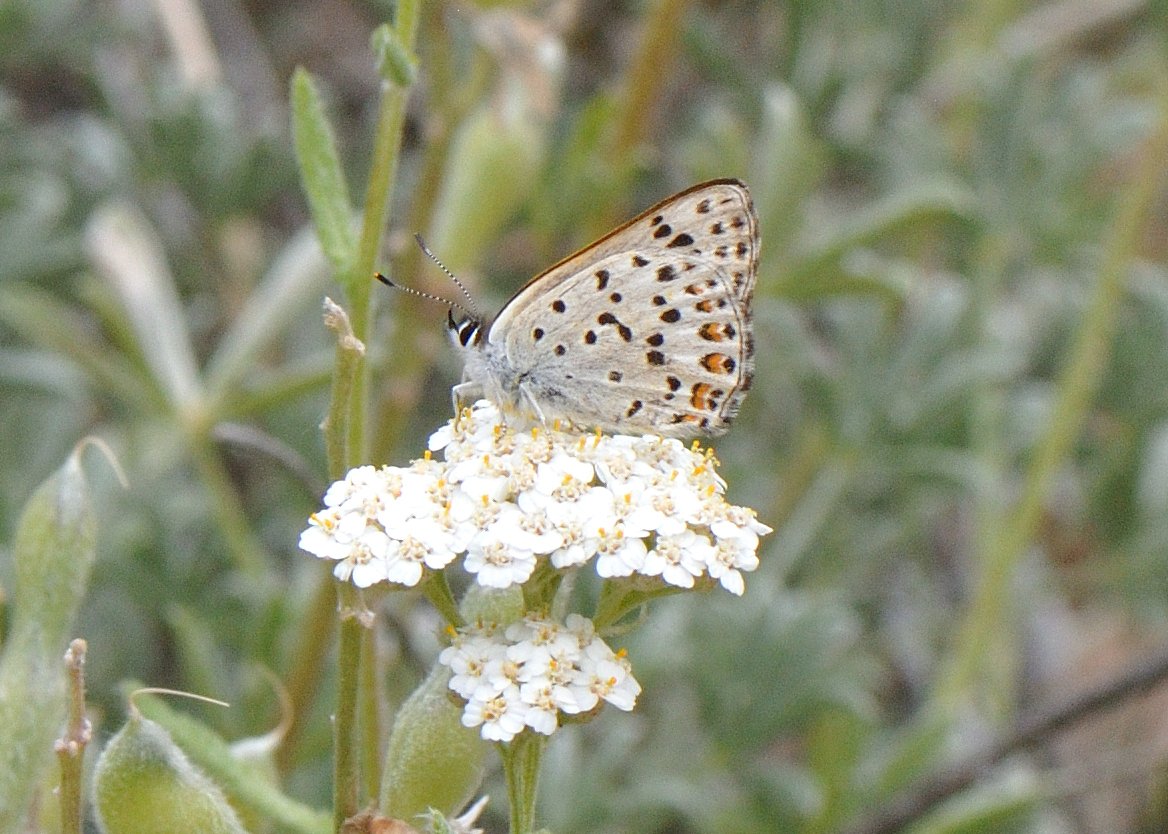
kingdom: Animalia
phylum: Arthropoda
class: Insecta
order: Lepidoptera
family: Lycaenidae
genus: Lycaena
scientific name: Lycaena gorgon
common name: Gorgon Copper
